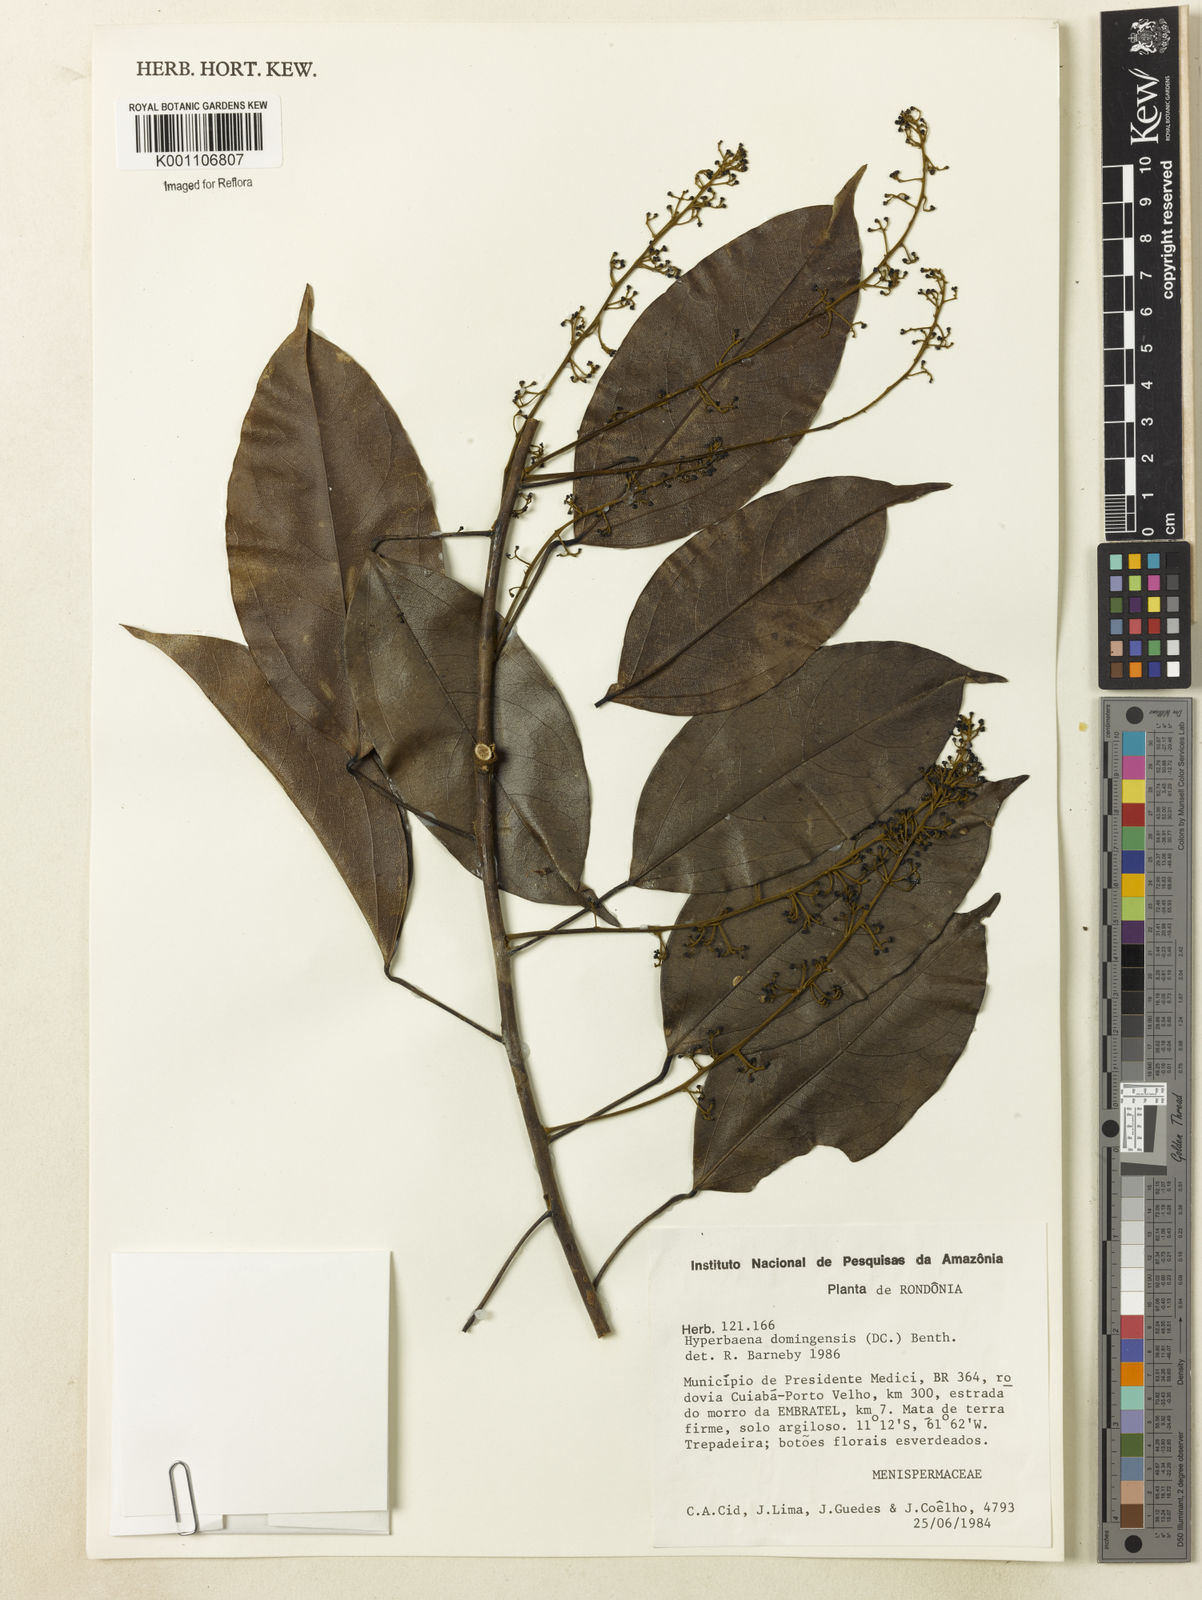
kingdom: Plantae
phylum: Tracheophyta
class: Magnoliopsida
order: Ranunculales
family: Menispermaceae
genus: Hyperbaena
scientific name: Hyperbaena domingensis
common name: Forest snakevine
